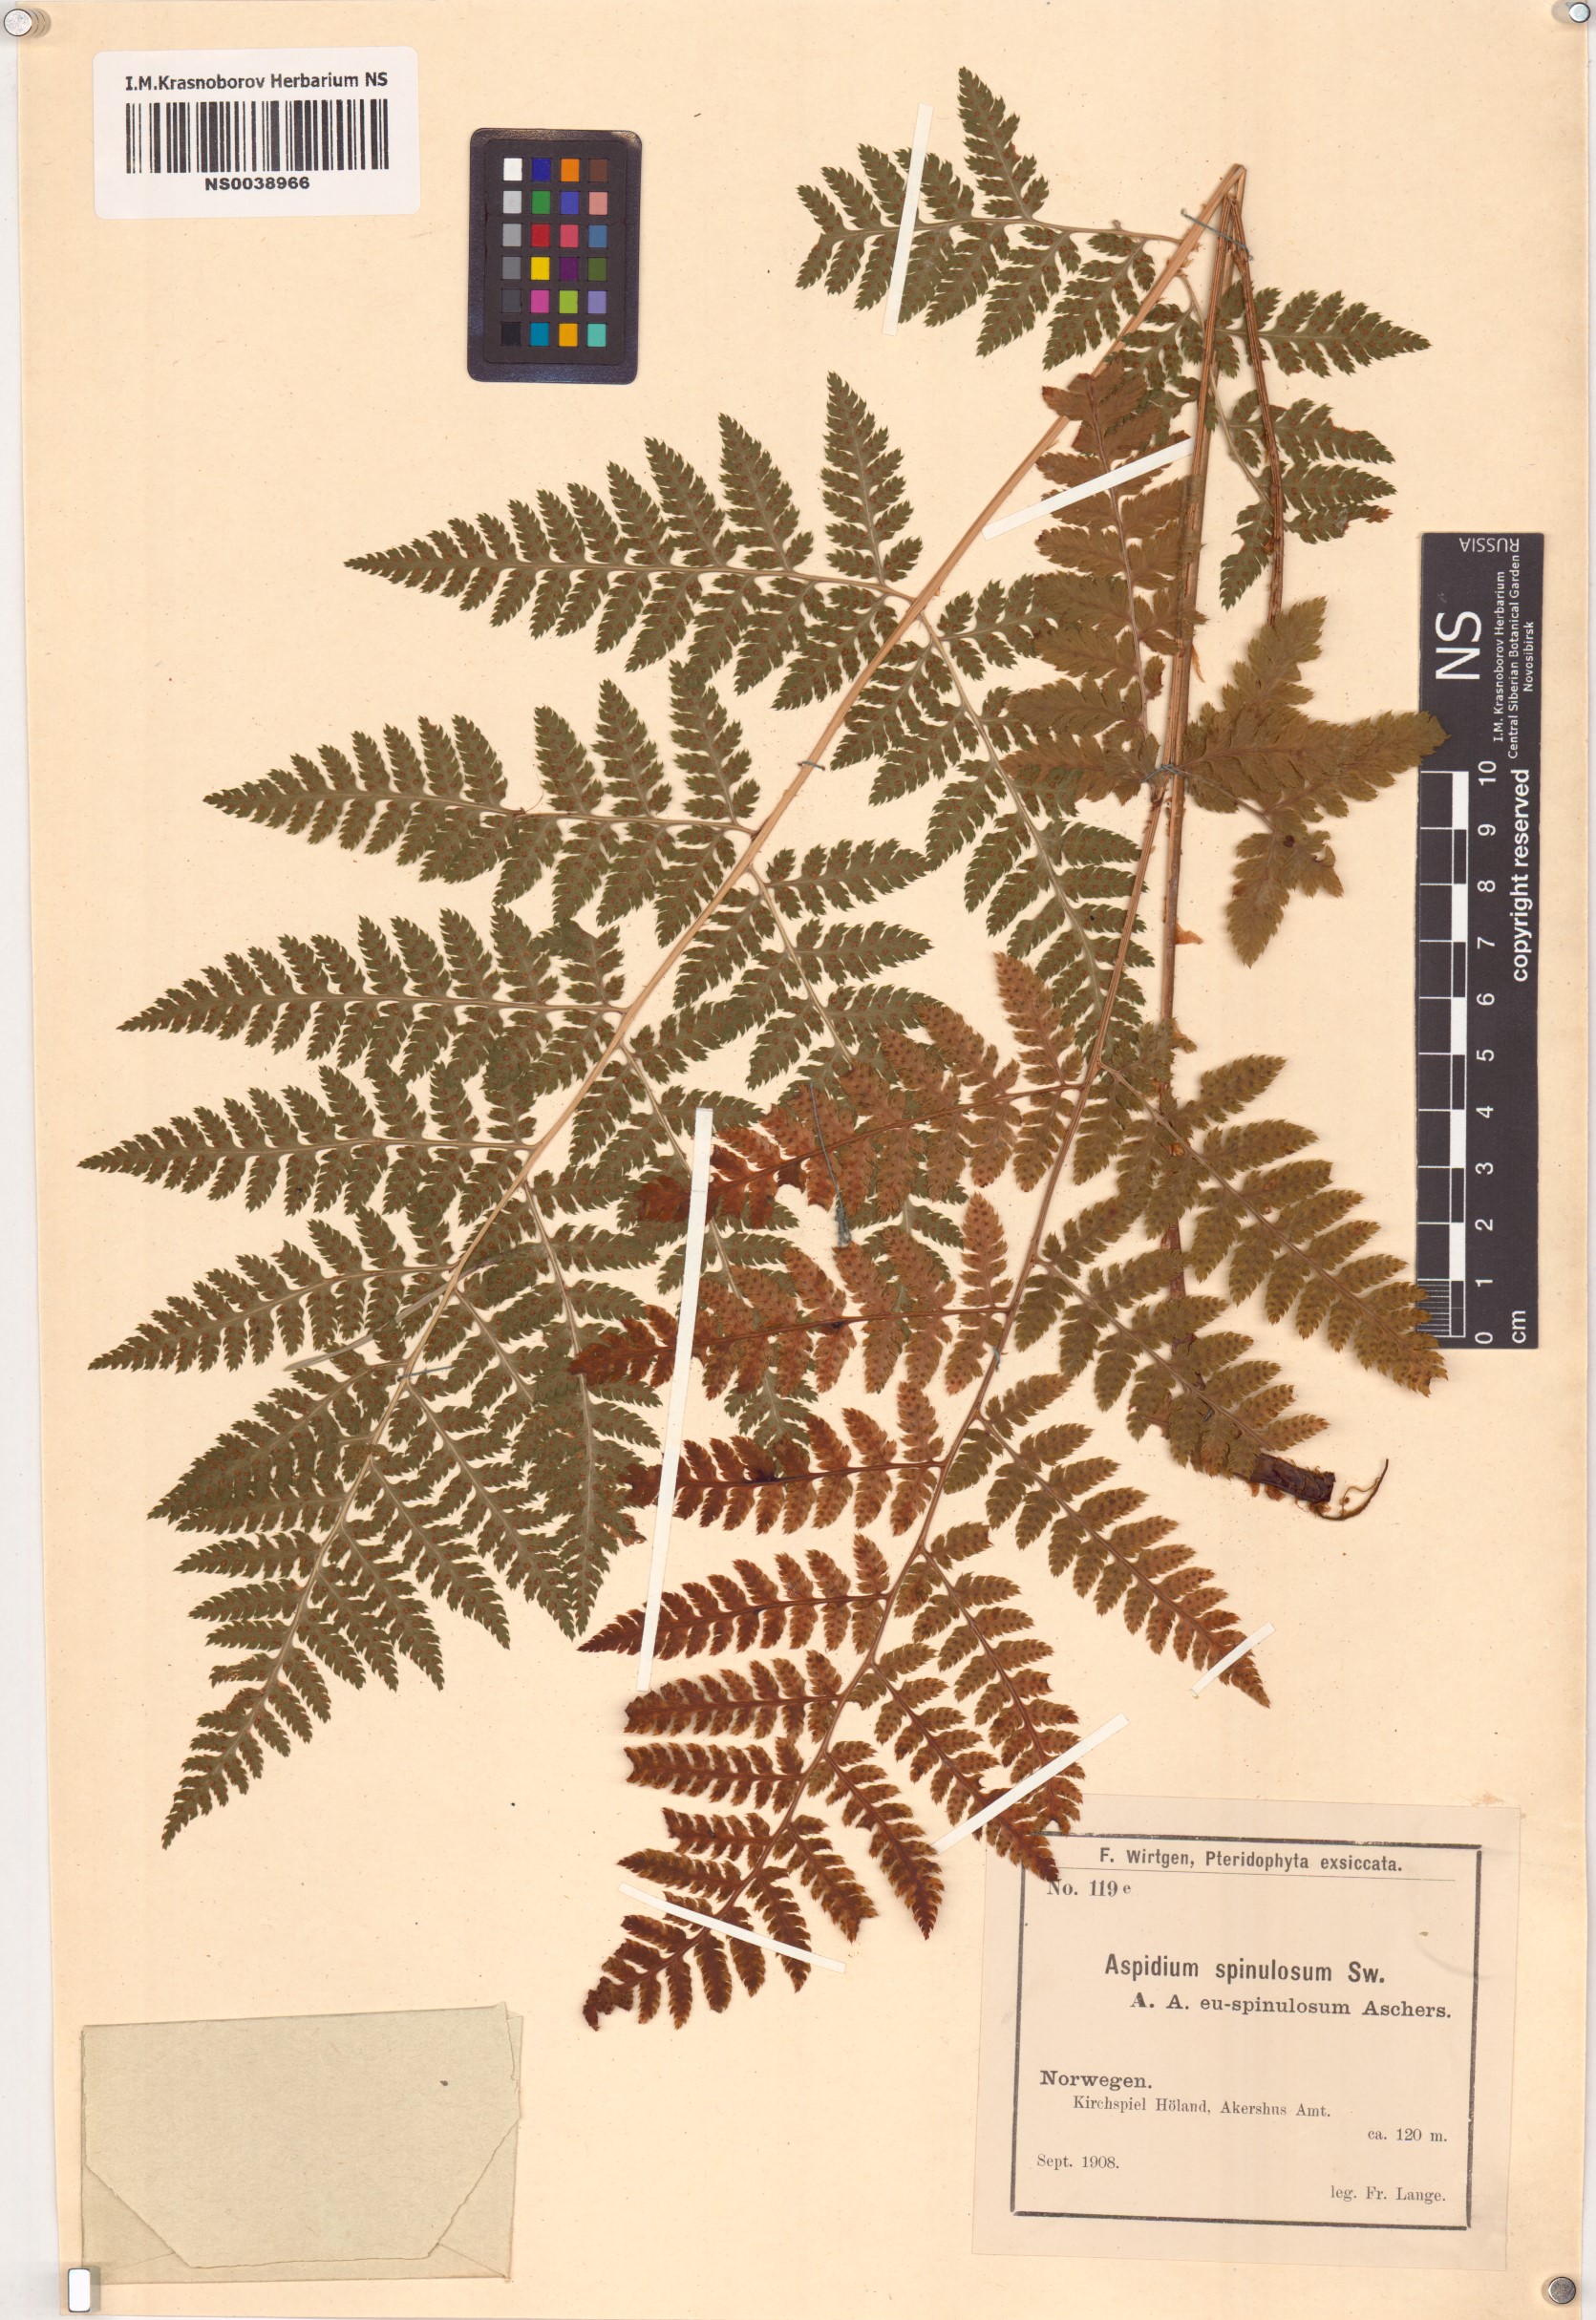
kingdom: Plantae
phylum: Tracheophyta
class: Polypodiopsida
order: Polypodiales
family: Dryopteridaceae
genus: Dryopteris
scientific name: Dryopteris carthusiana
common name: Narrow buckler-fern
